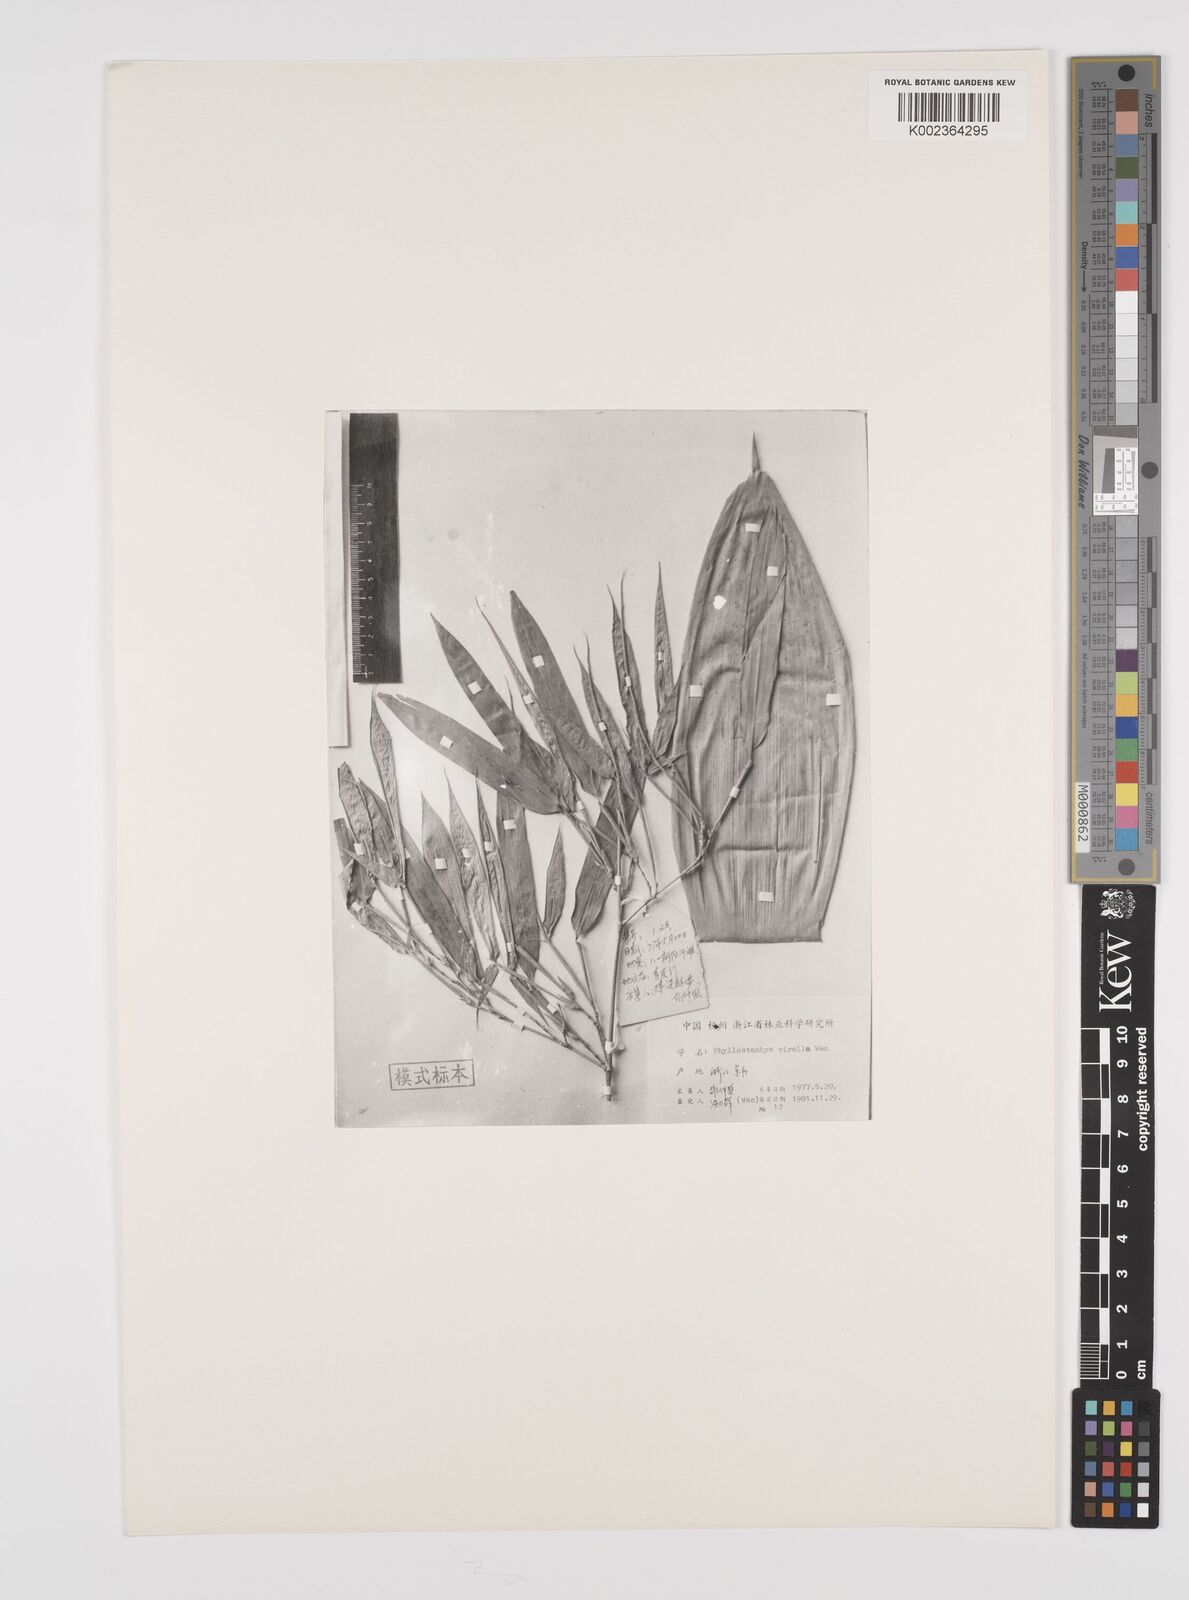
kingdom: Plantae
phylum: Tracheophyta
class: Liliopsida
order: Poales
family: Poaceae
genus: Phyllostachys
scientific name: Phyllostachys virella
